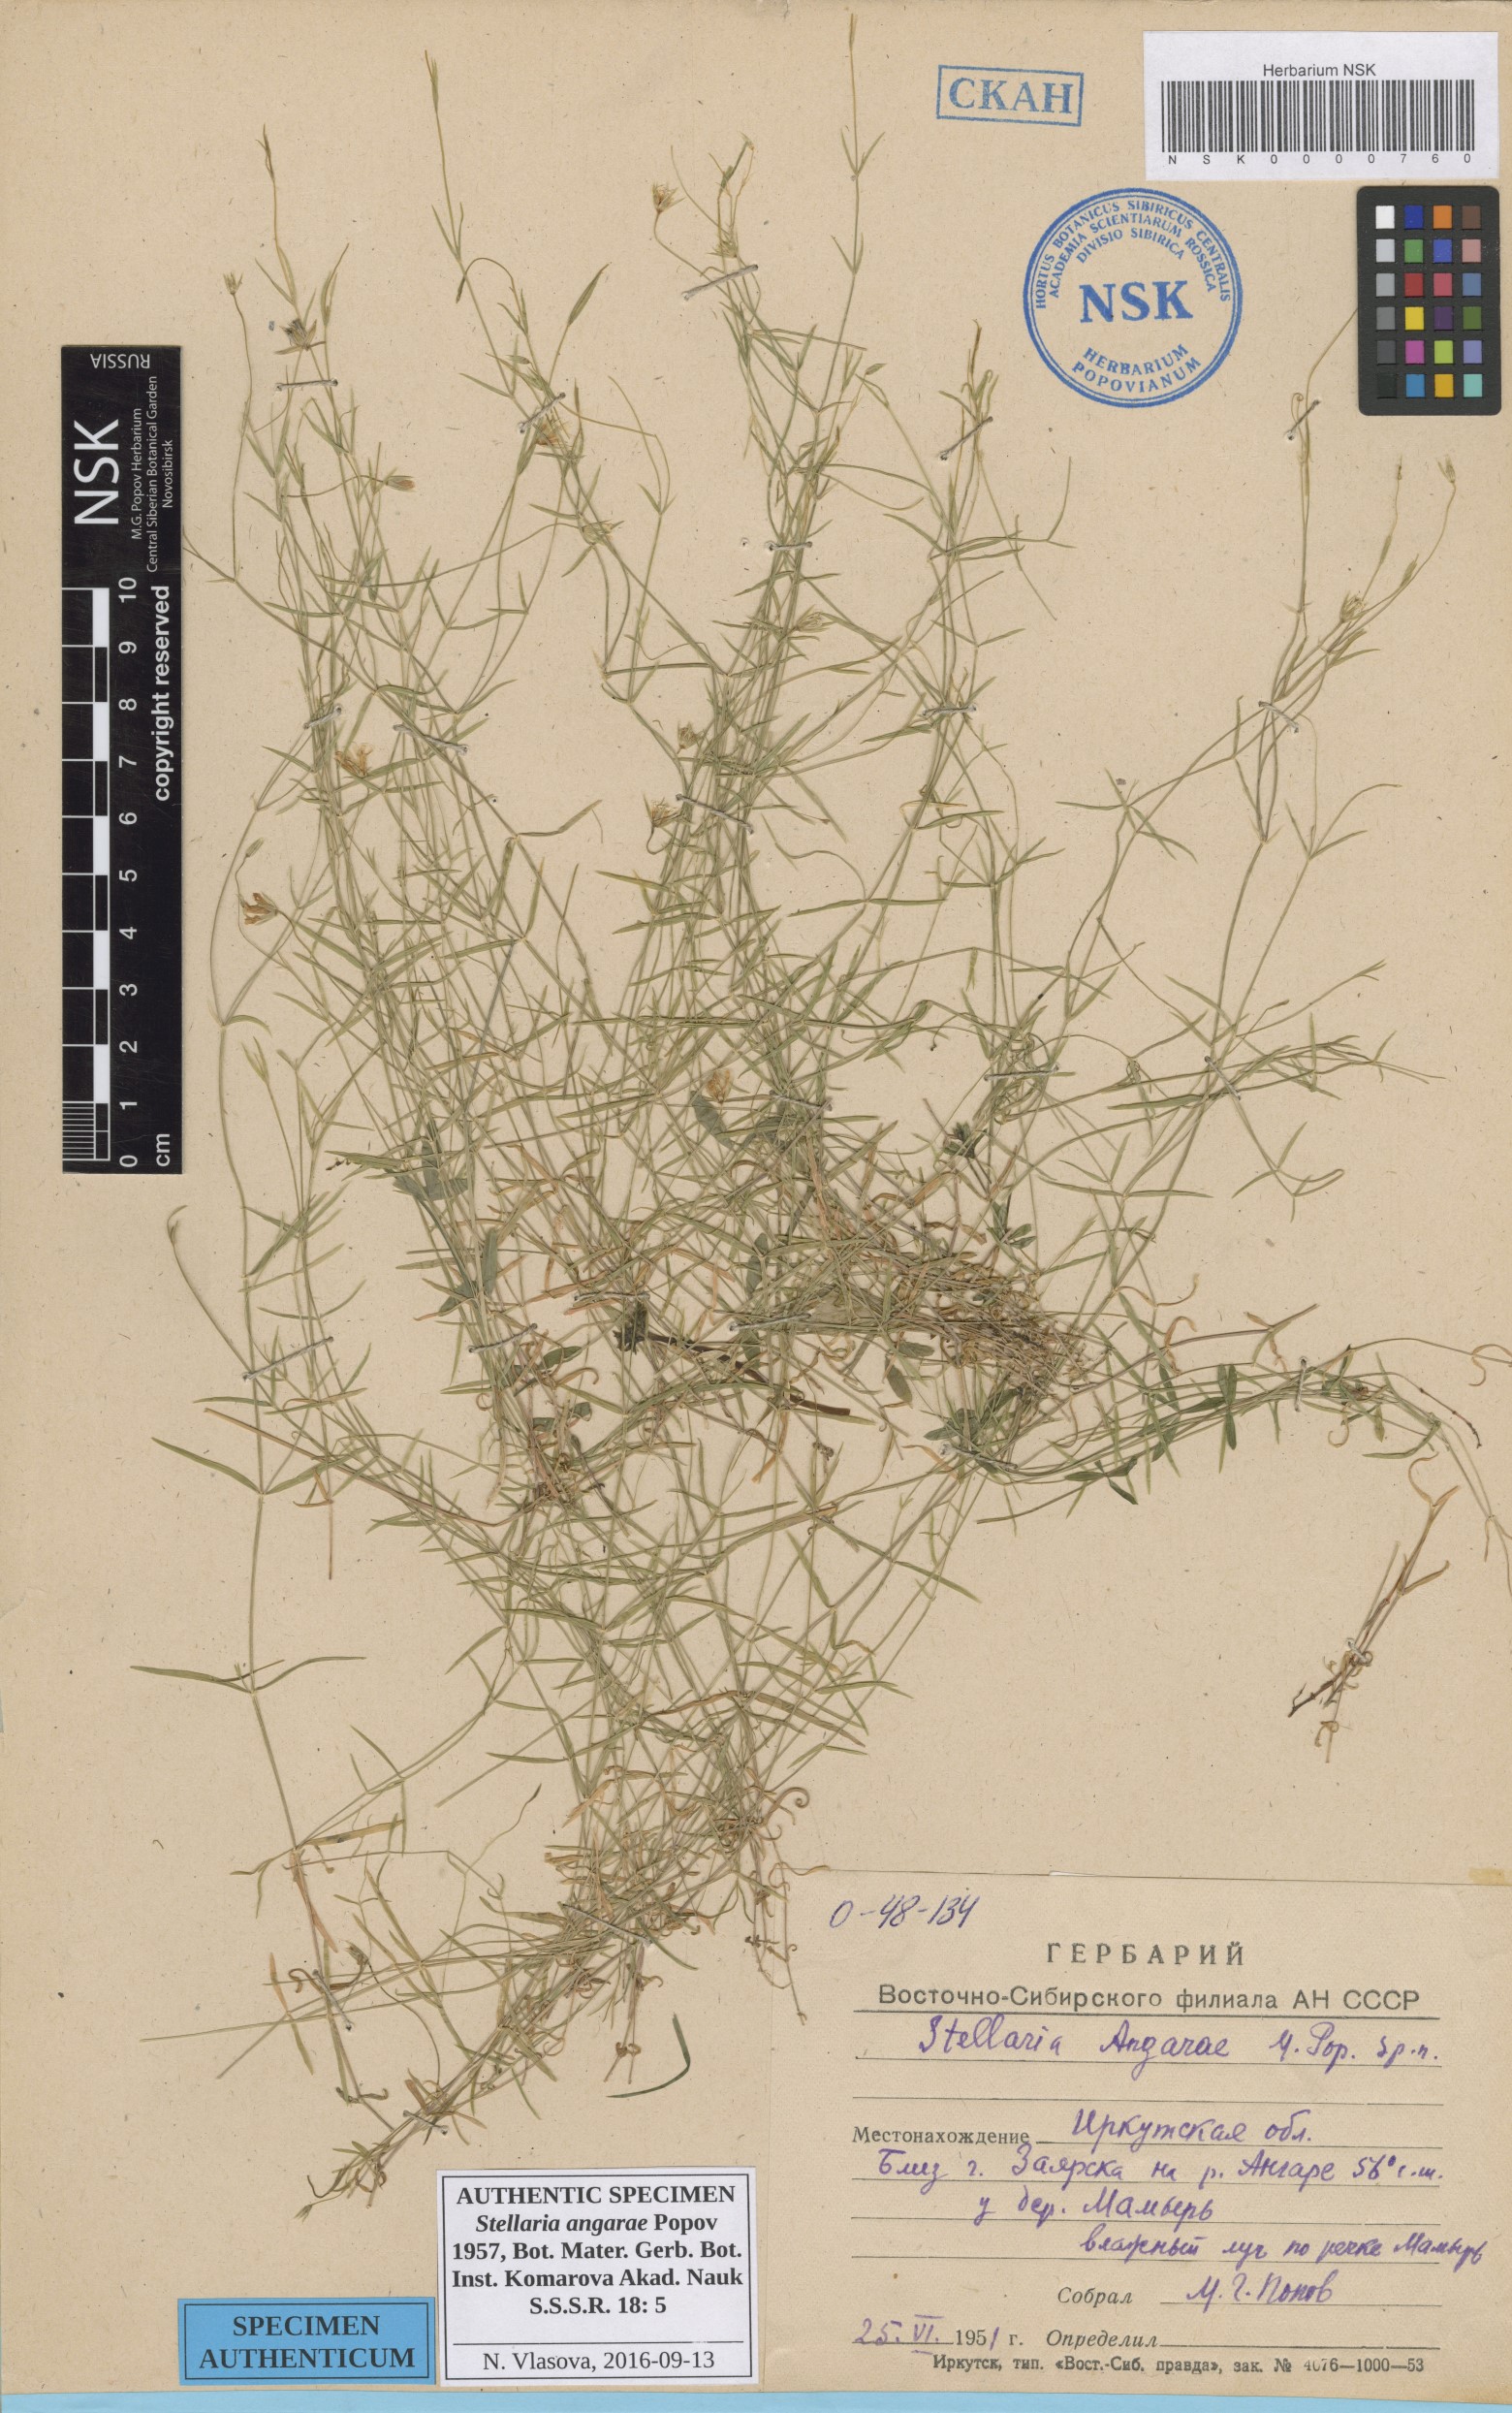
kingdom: Plantae
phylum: Tracheophyta
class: Magnoliopsida
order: Caryophyllales
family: Caryophyllaceae
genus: Stellaria
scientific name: Stellaria angarae
